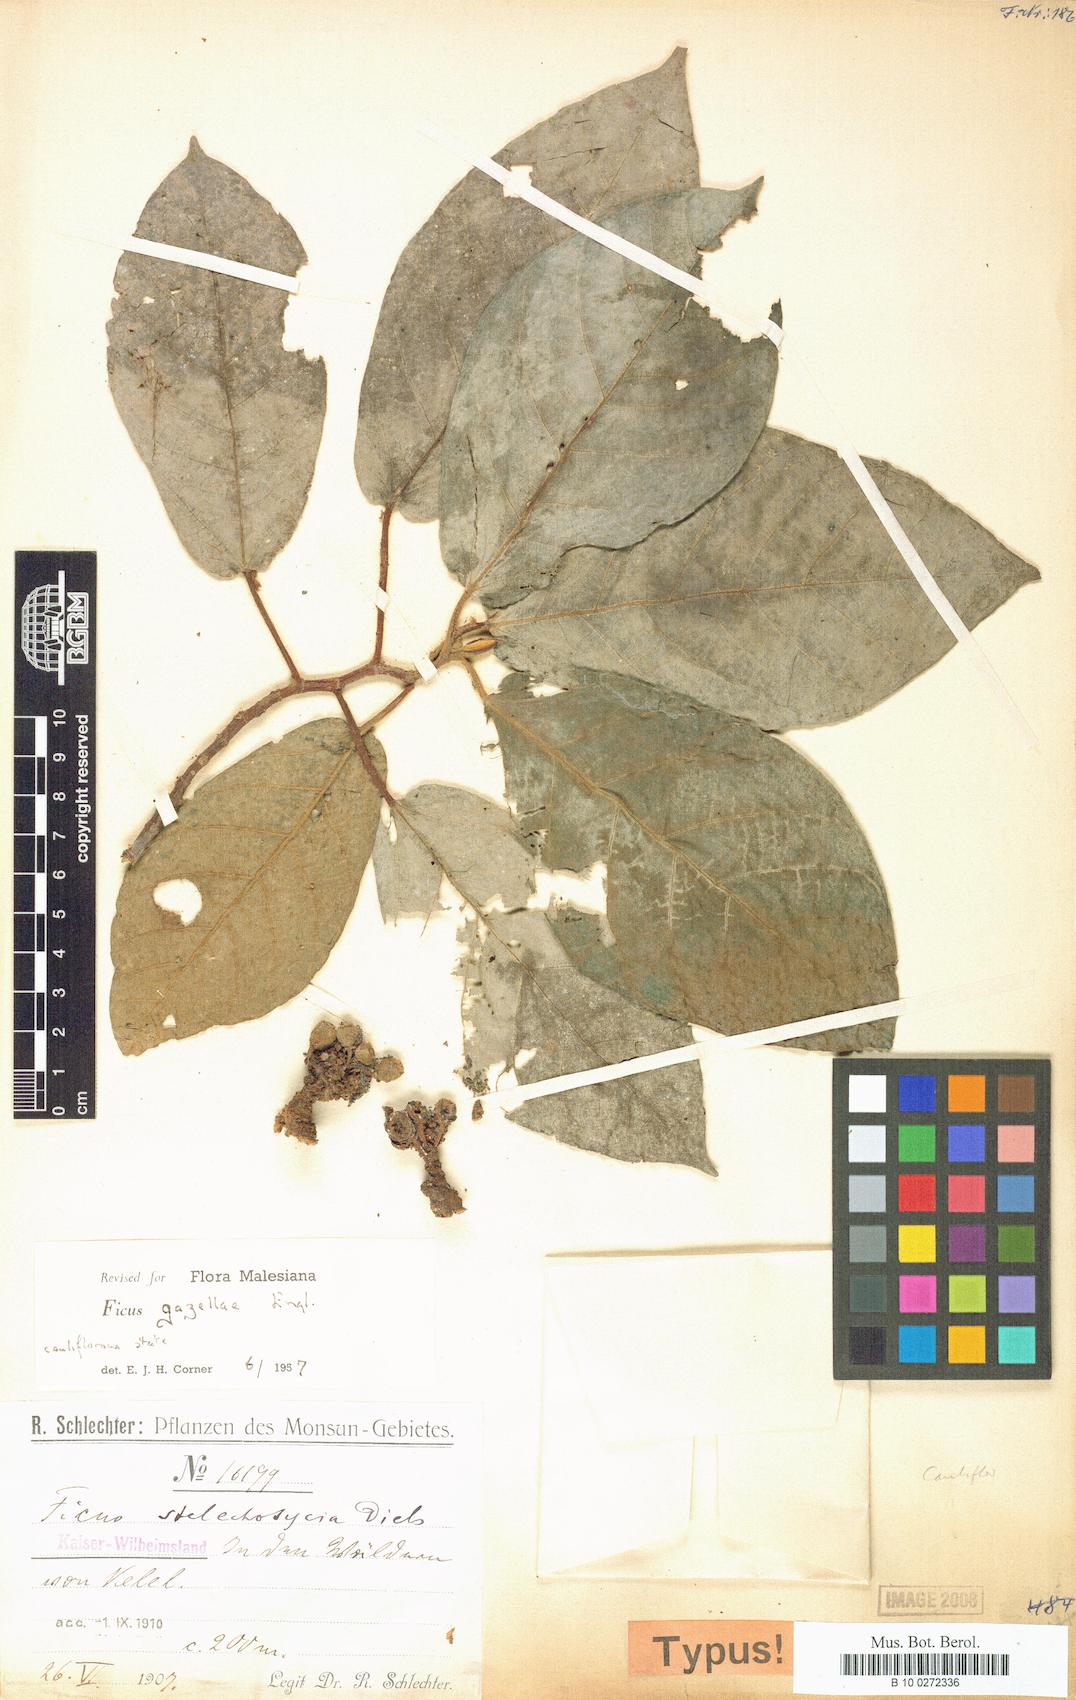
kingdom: Plantae
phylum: Tracheophyta
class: Magnoliopsida
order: Rosales
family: Moraceae
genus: Ficus
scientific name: Ficus mollior
